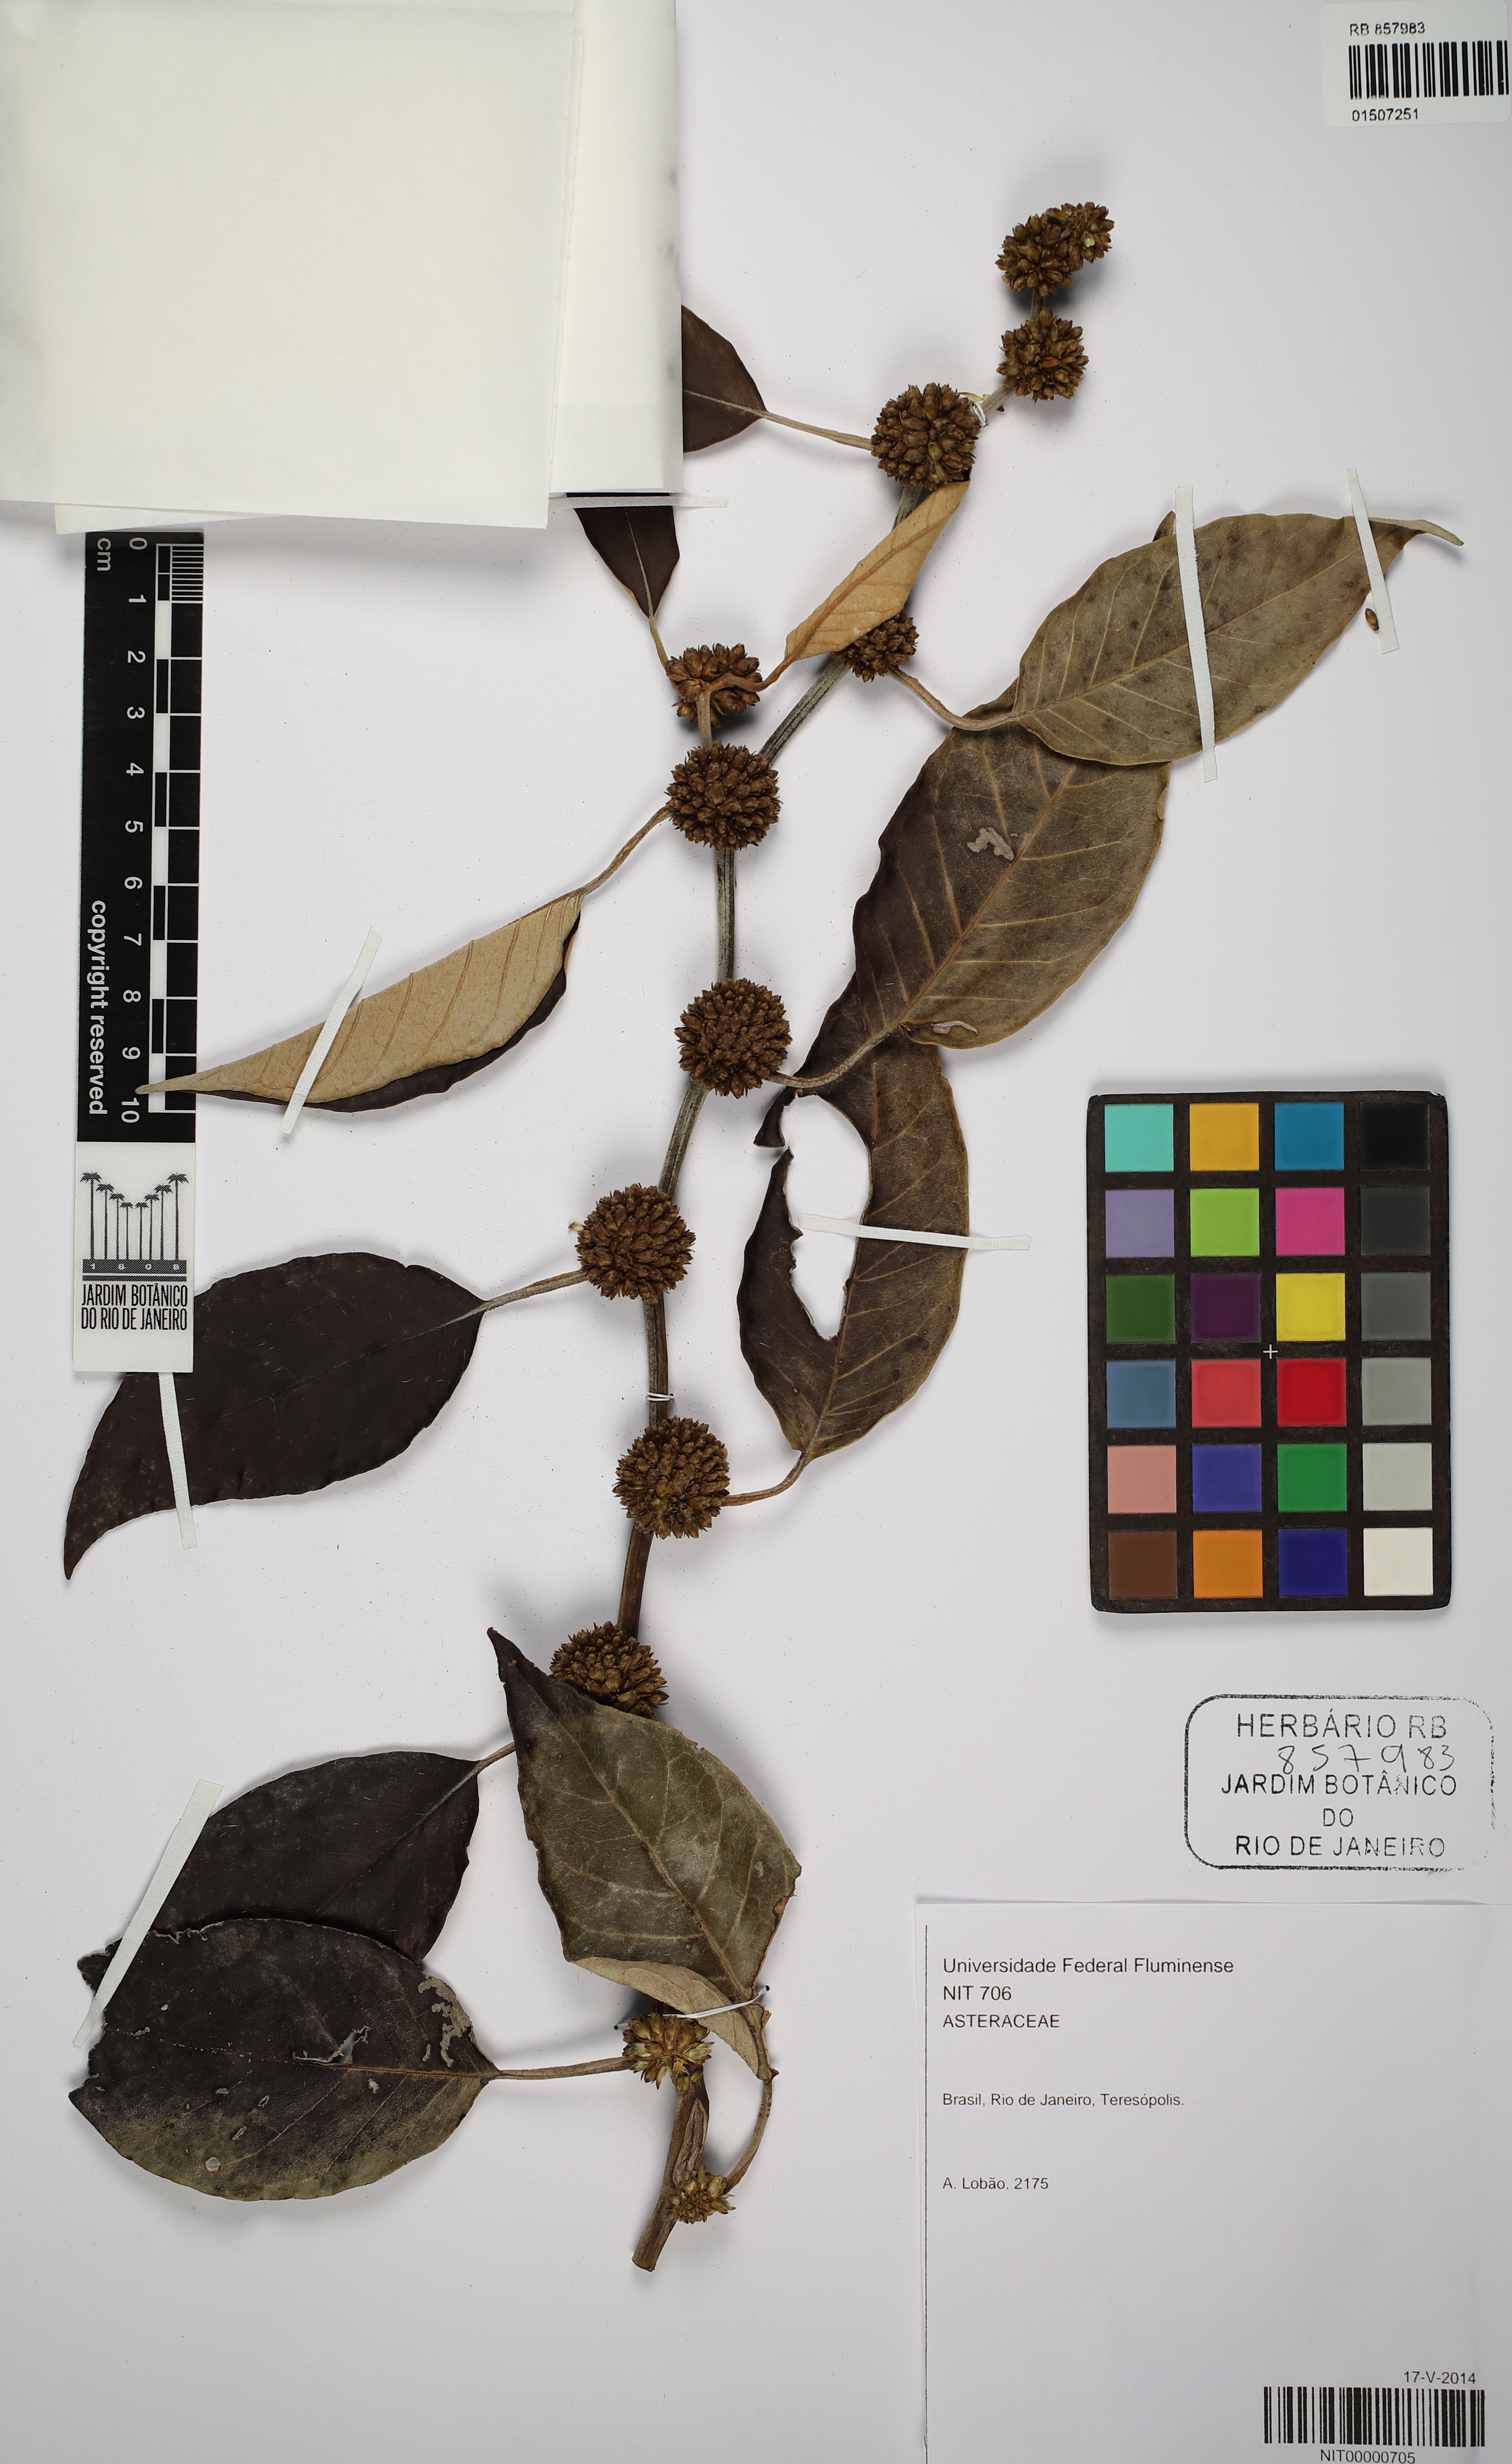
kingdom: Plantae
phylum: Tracheophyta
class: Magnoliopsida
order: Asterales
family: Asteraceae
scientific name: Asteraceae
